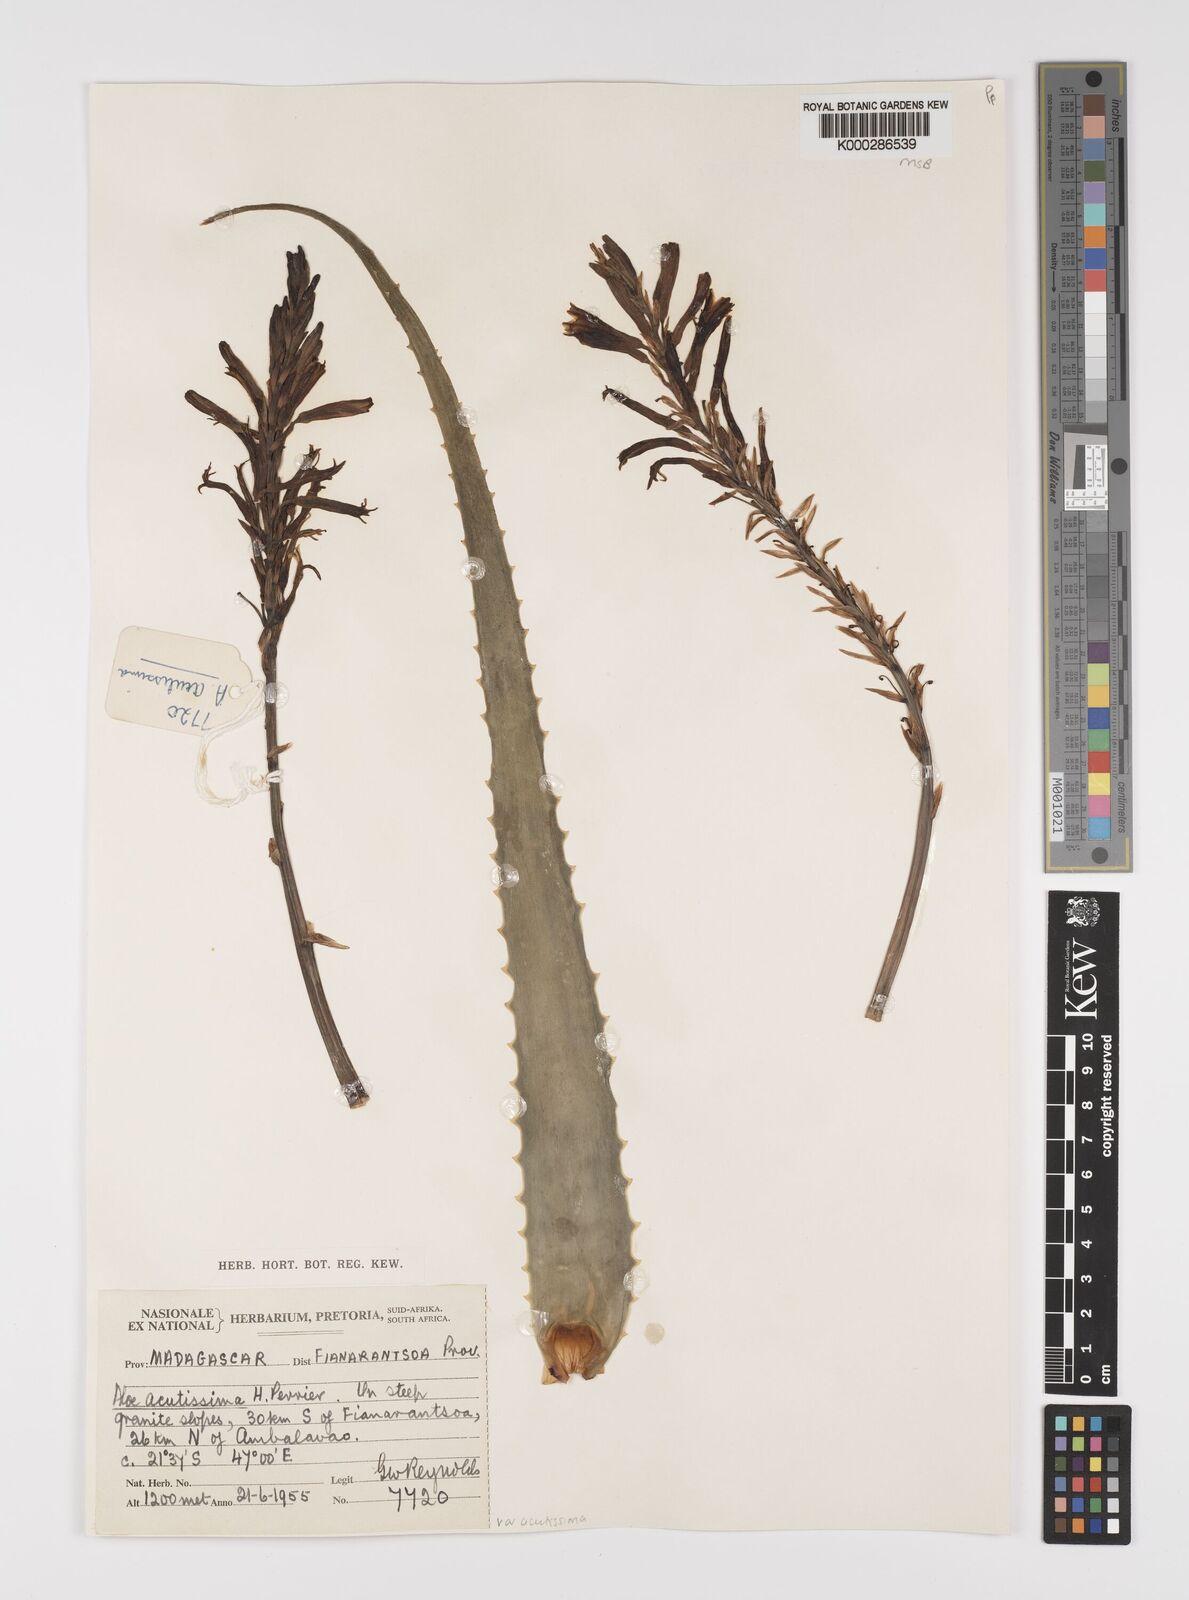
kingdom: Plantae
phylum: Tracheophyta
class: Liliopsida
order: Asparagales
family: Asphodelaceae
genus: Aloe
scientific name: Aloe
